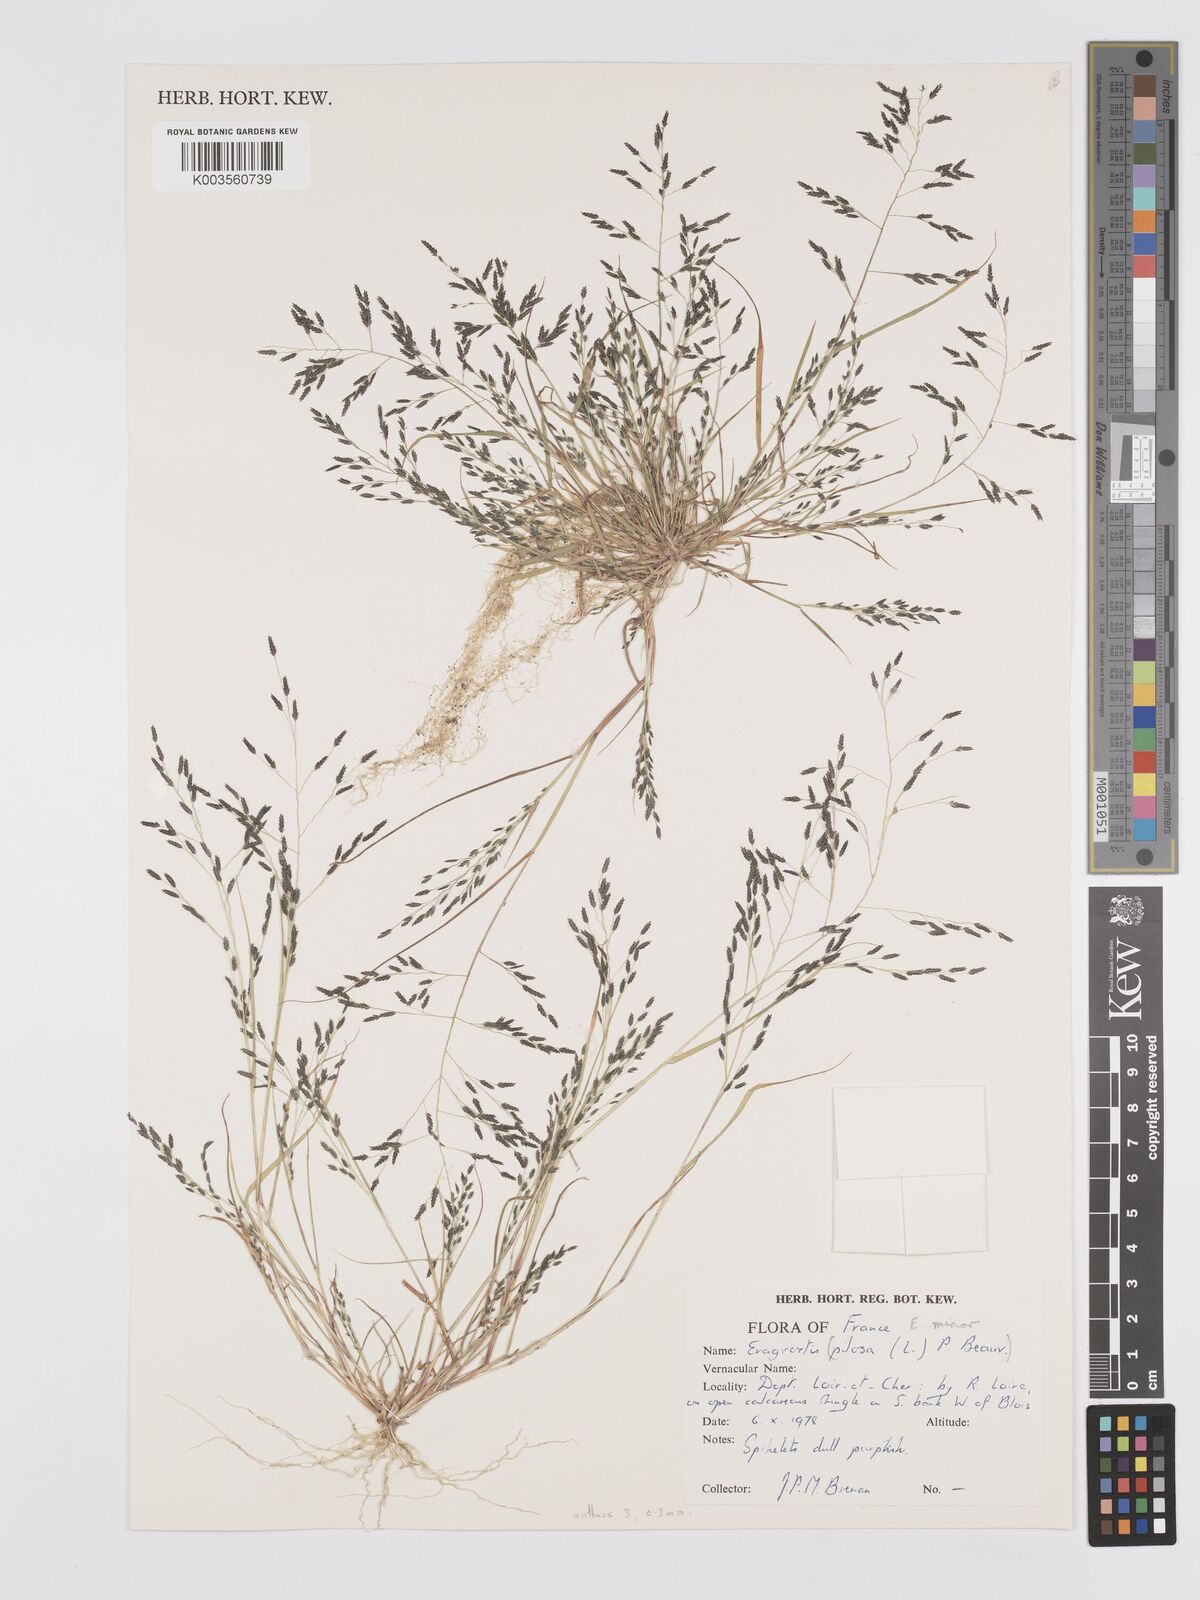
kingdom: Plantae
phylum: Tracheophyta
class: Liliopsida
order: Poales
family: Poaceae
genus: Eragrostis
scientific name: Eragrostis minor
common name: Small love-grass
